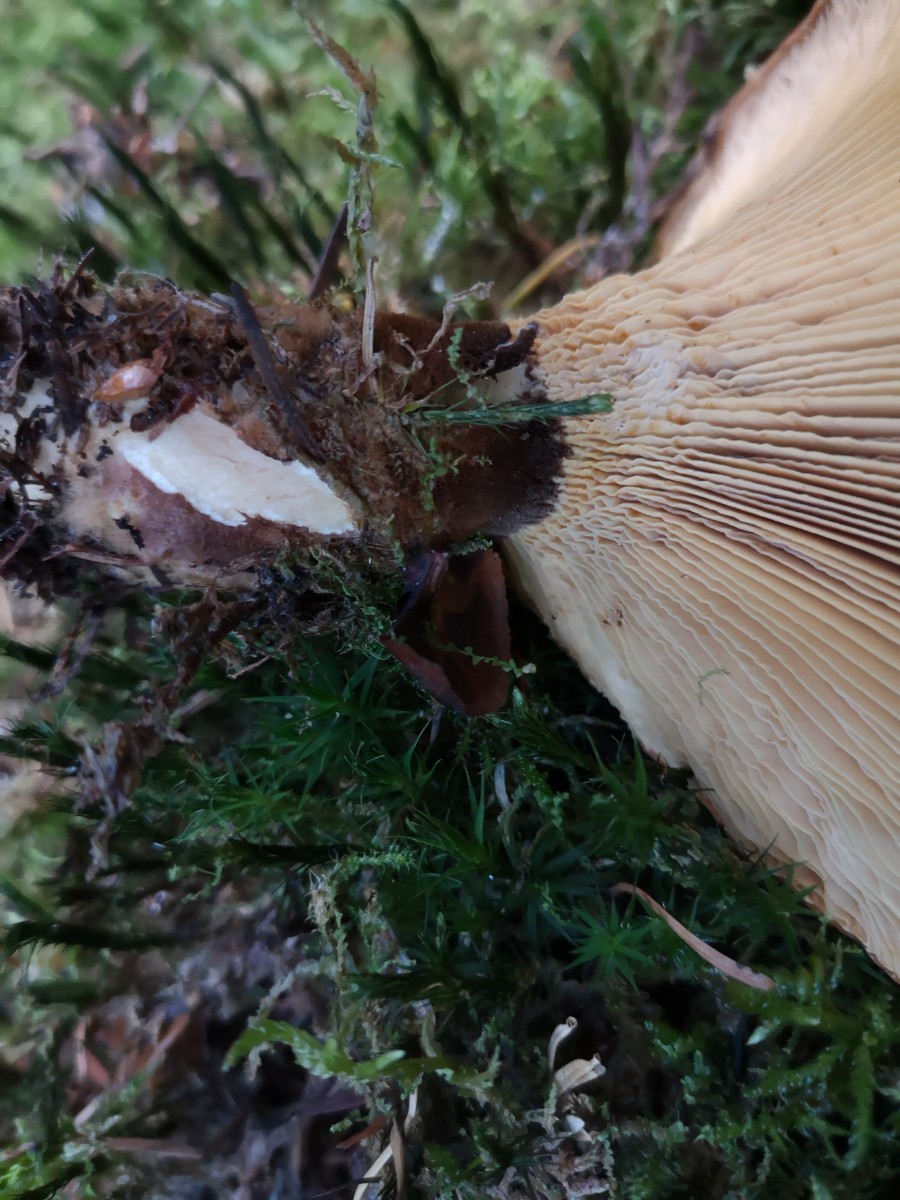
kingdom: Fungi
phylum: Basidiomycota
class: Agaricomycetes
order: Boletales
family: Tapinellaceae
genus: Tapinella
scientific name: Tapinella atrotomentosa
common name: sortfiltet viftesvamp
